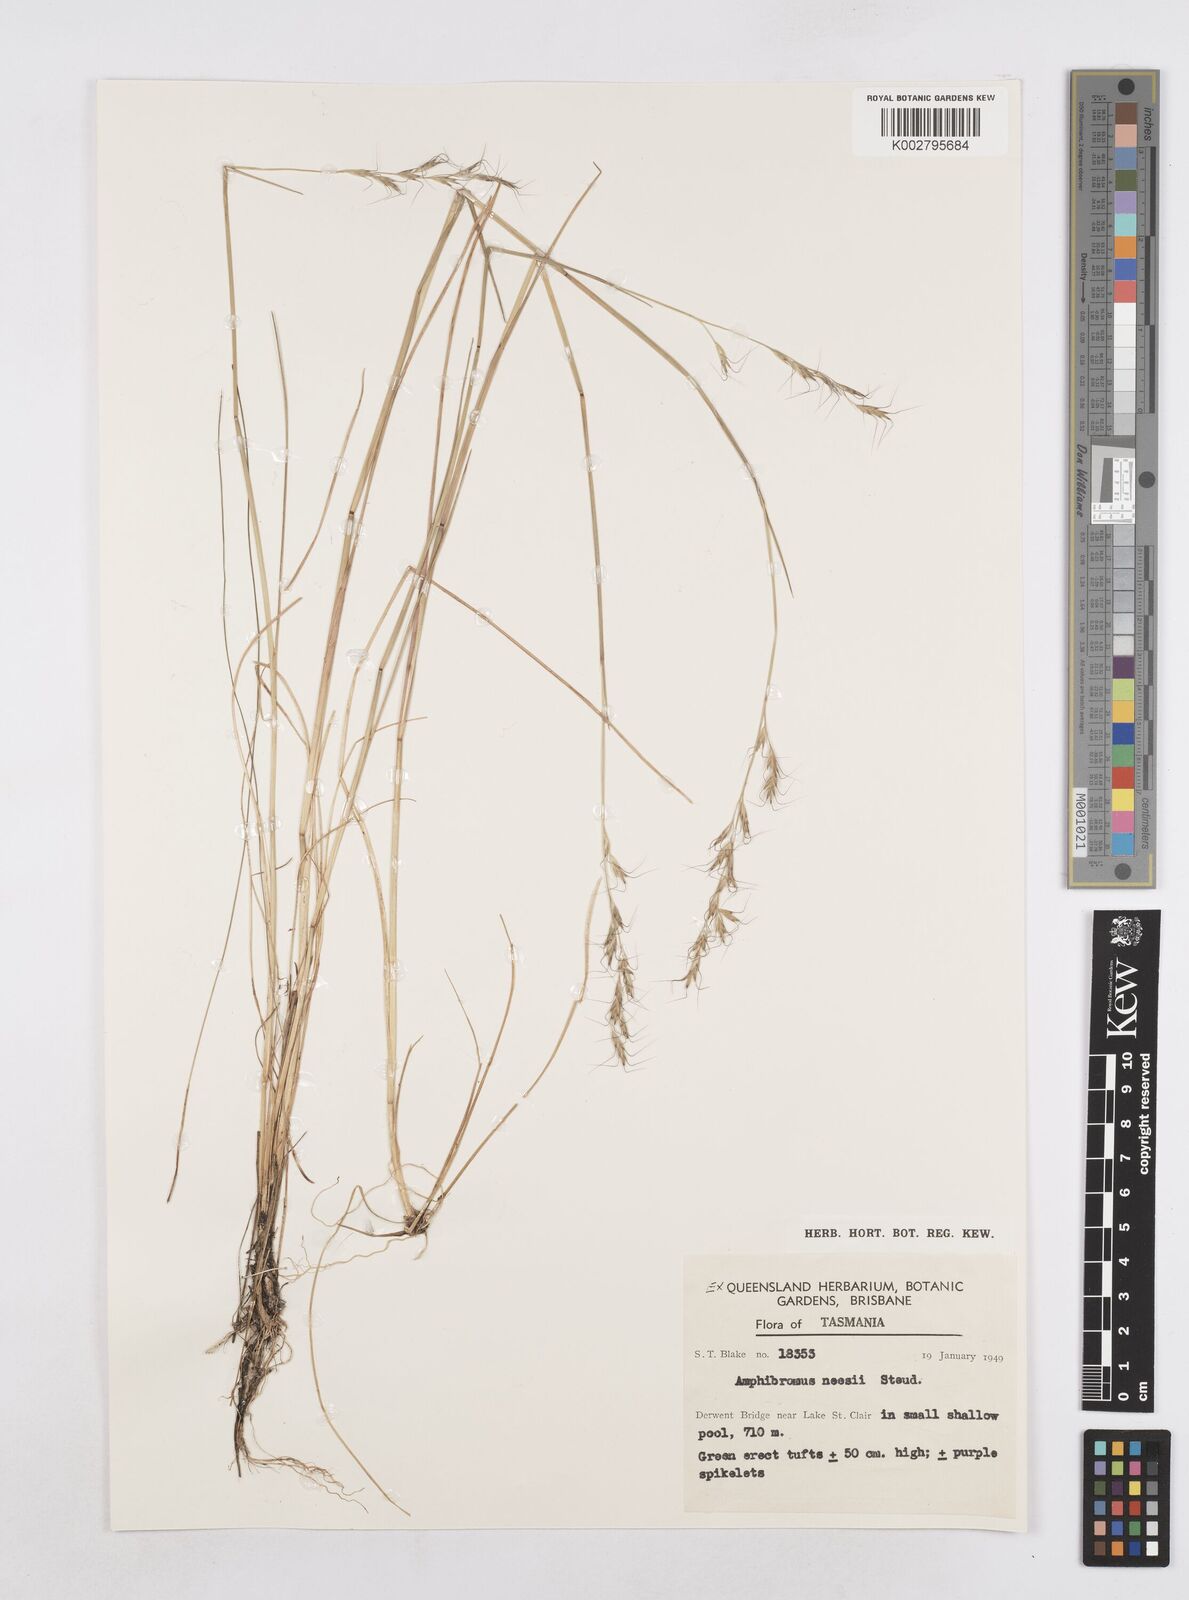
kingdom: Plantae
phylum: Tracheophyta
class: Liliopsida
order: Poales
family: Poaceae
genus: Amphibromus
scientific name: Amphibromus neesii
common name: Australian wallaby grass
